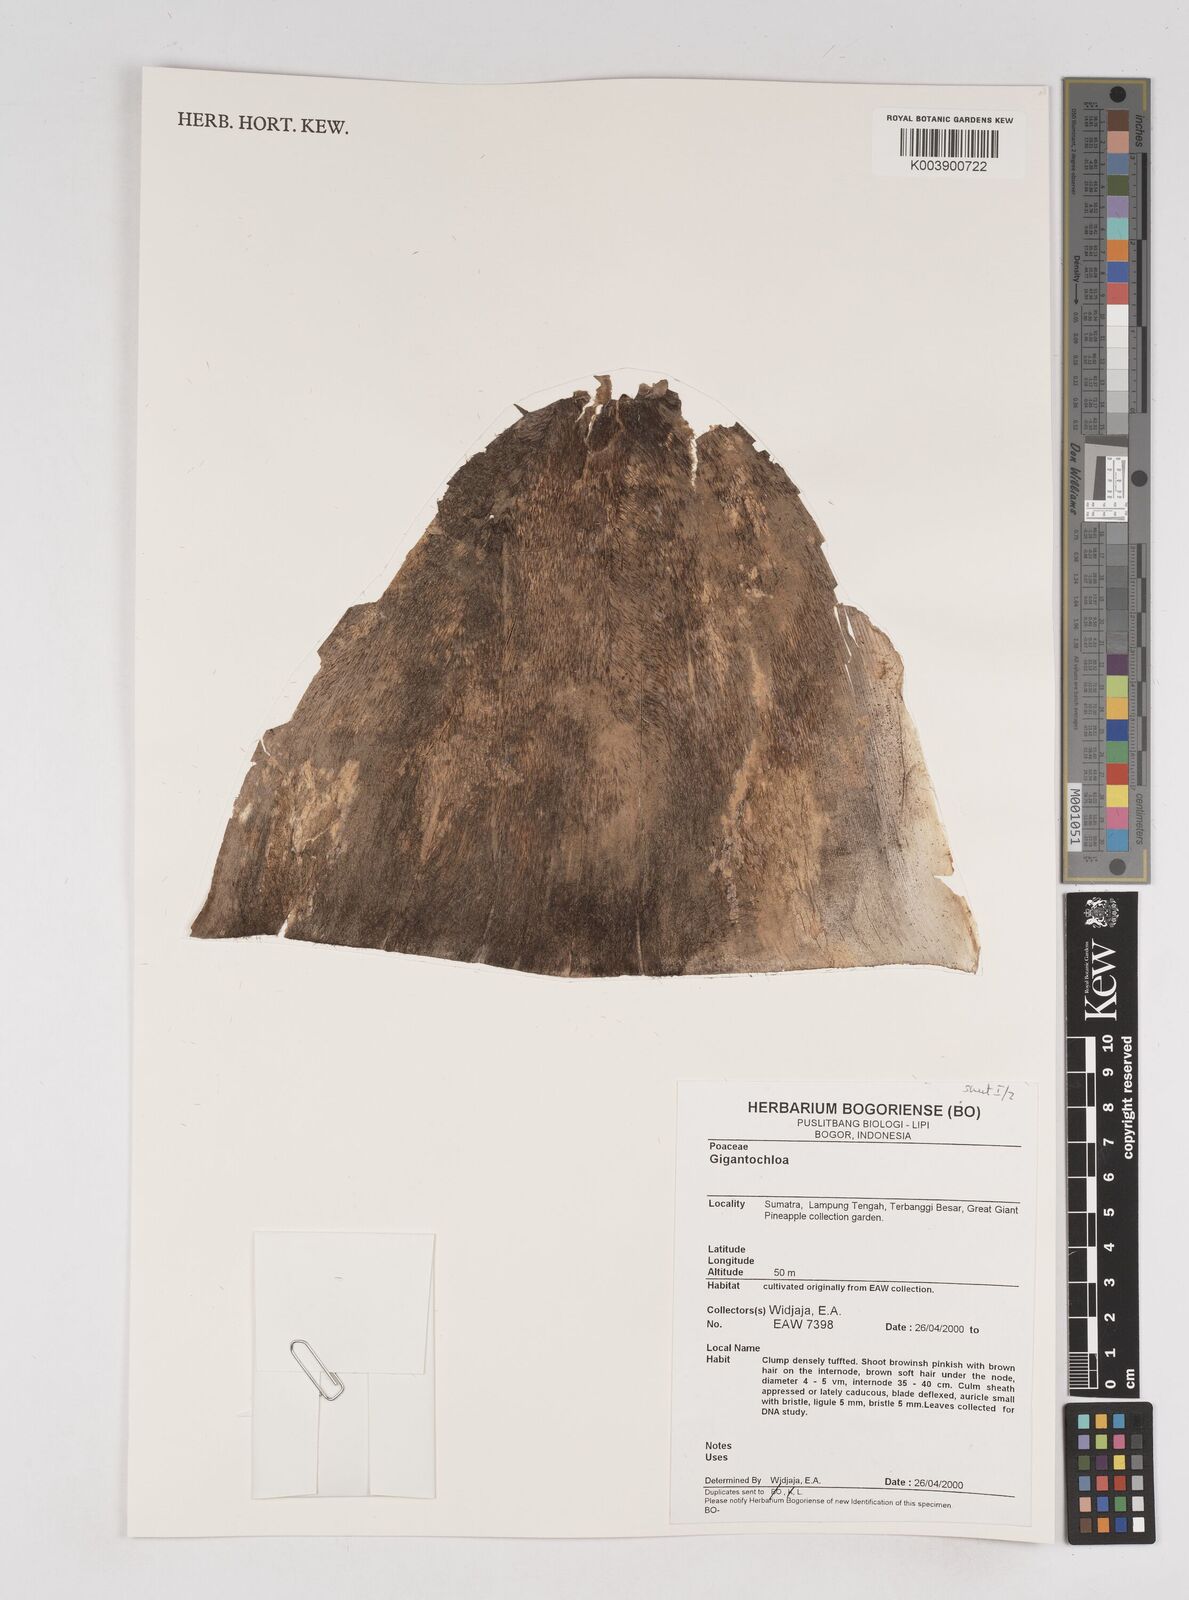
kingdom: Plantae
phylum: Tracheophyta
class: Liliopsida
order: Poales
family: Poaceae
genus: Gigantochloa
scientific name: Gigantochloa
